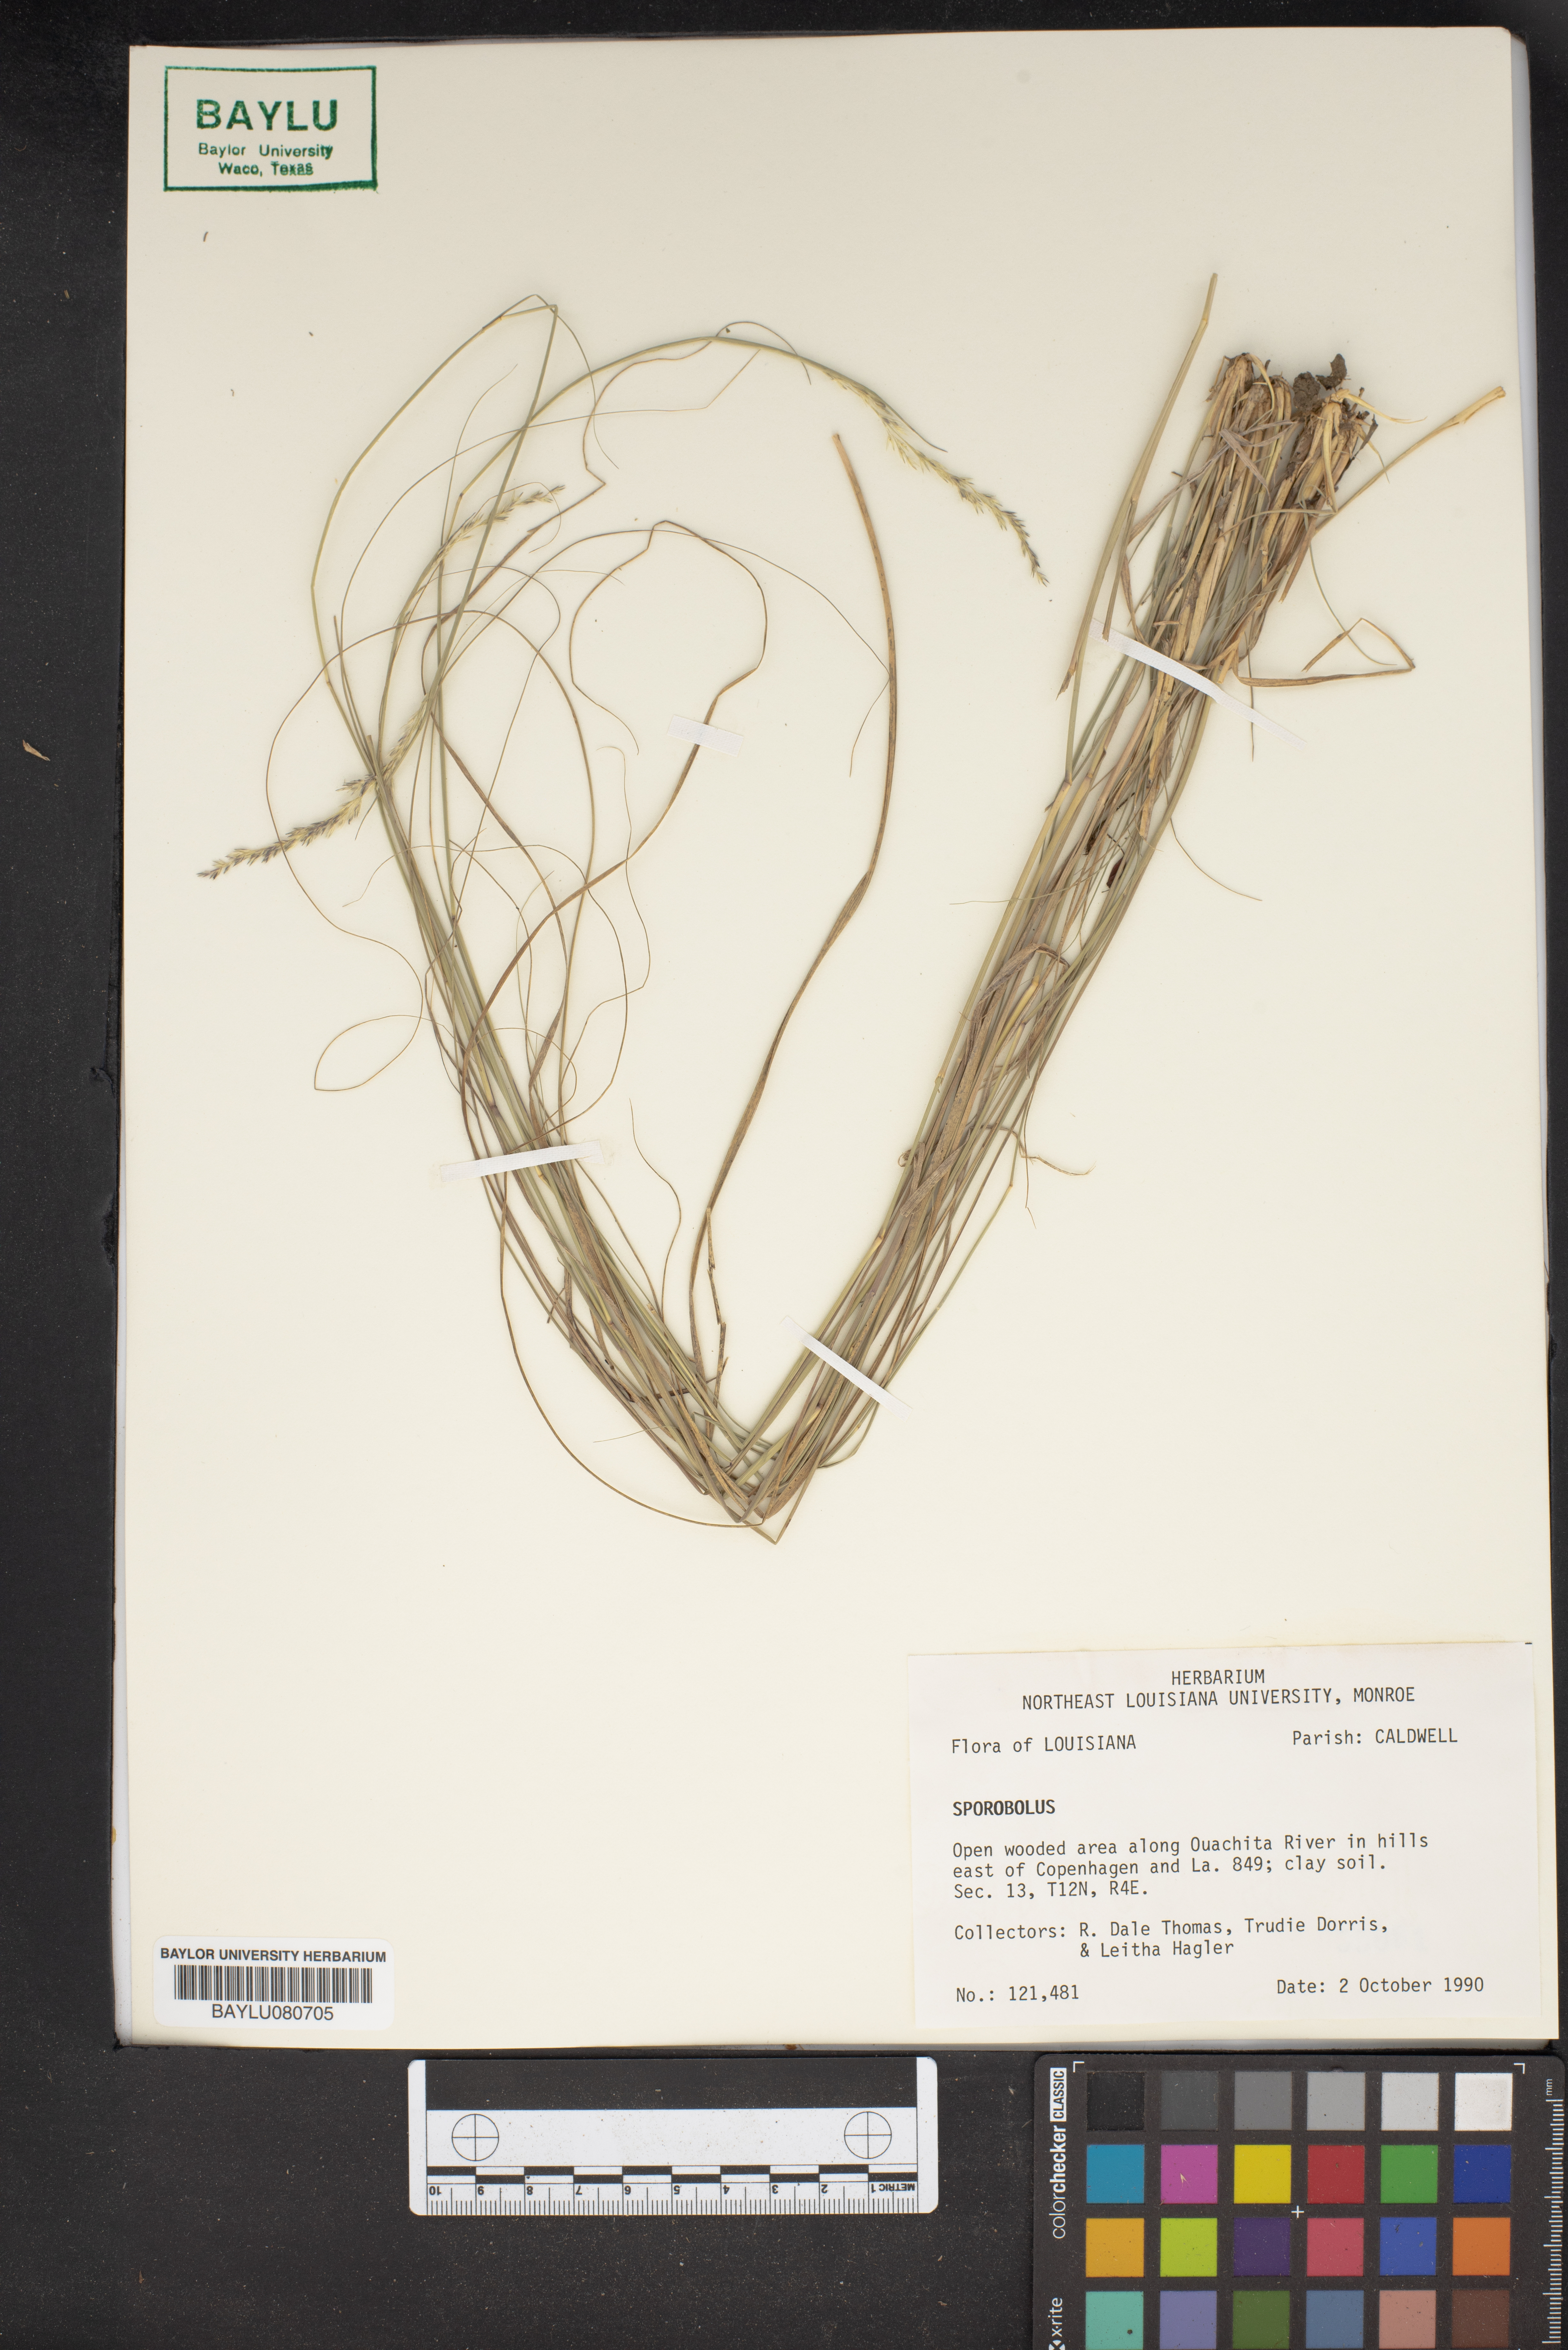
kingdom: Plantae
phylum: Tracheophyta
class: Liliopsida
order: Poales
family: Poaceae
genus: Sporobolus
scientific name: Sporobolus
